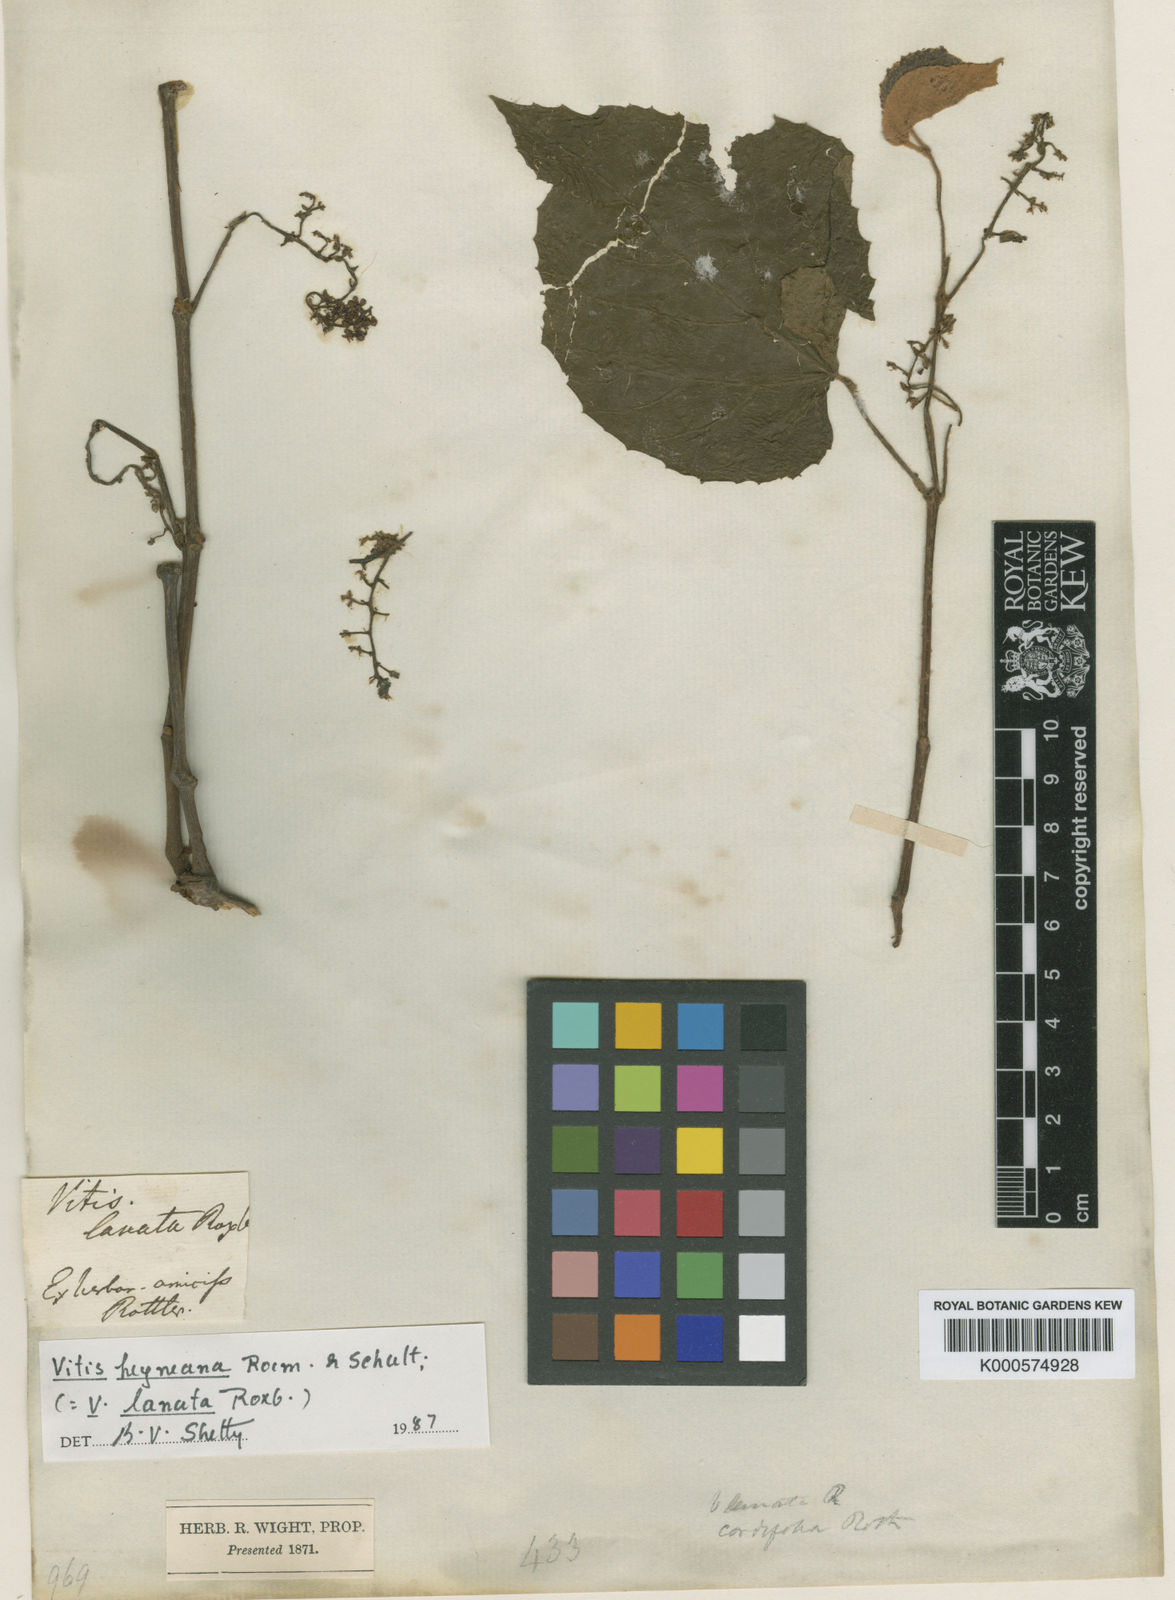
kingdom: Plantae
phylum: Tracheophyta
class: Magnoliopsida
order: Vitales
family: Vitaceae
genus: Vitis
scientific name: Vitis heyneana
